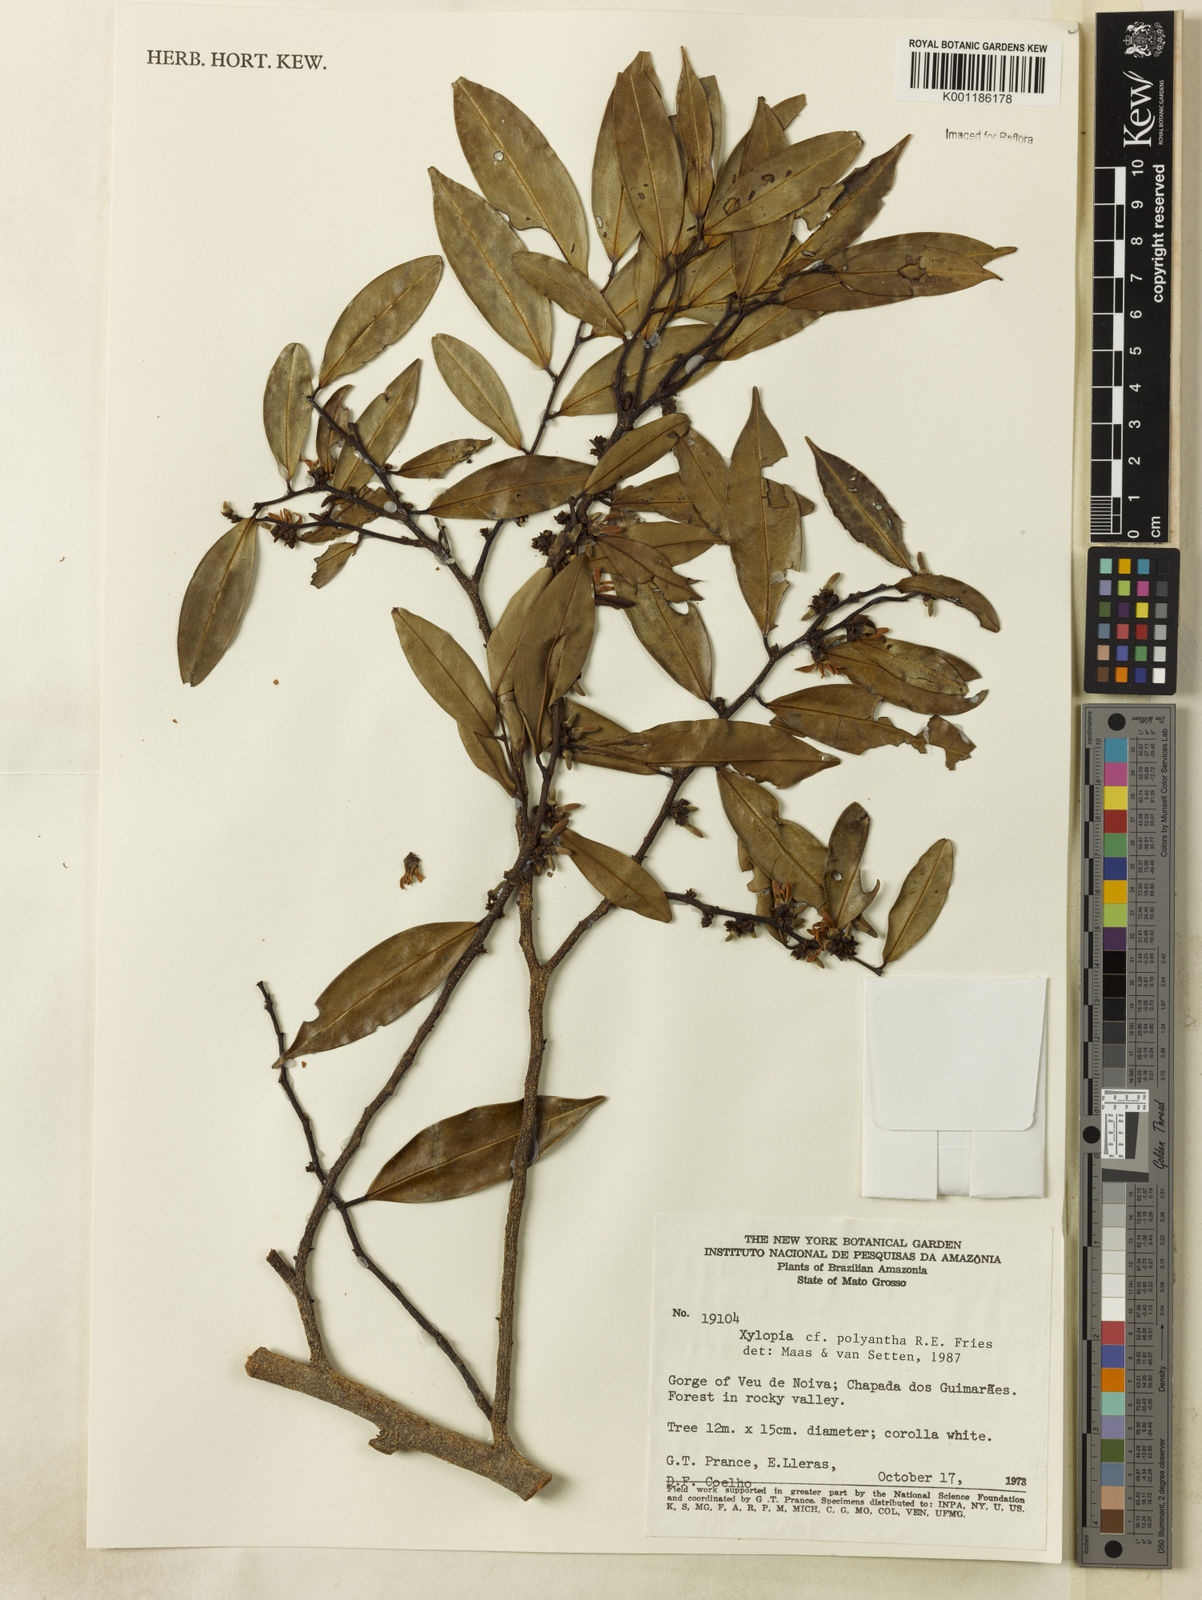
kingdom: Plantae
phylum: Tracheophyta
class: Magnoliopsida
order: Magnoliales
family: Annonaceae
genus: Xylopia
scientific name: Xylopia polyantha
